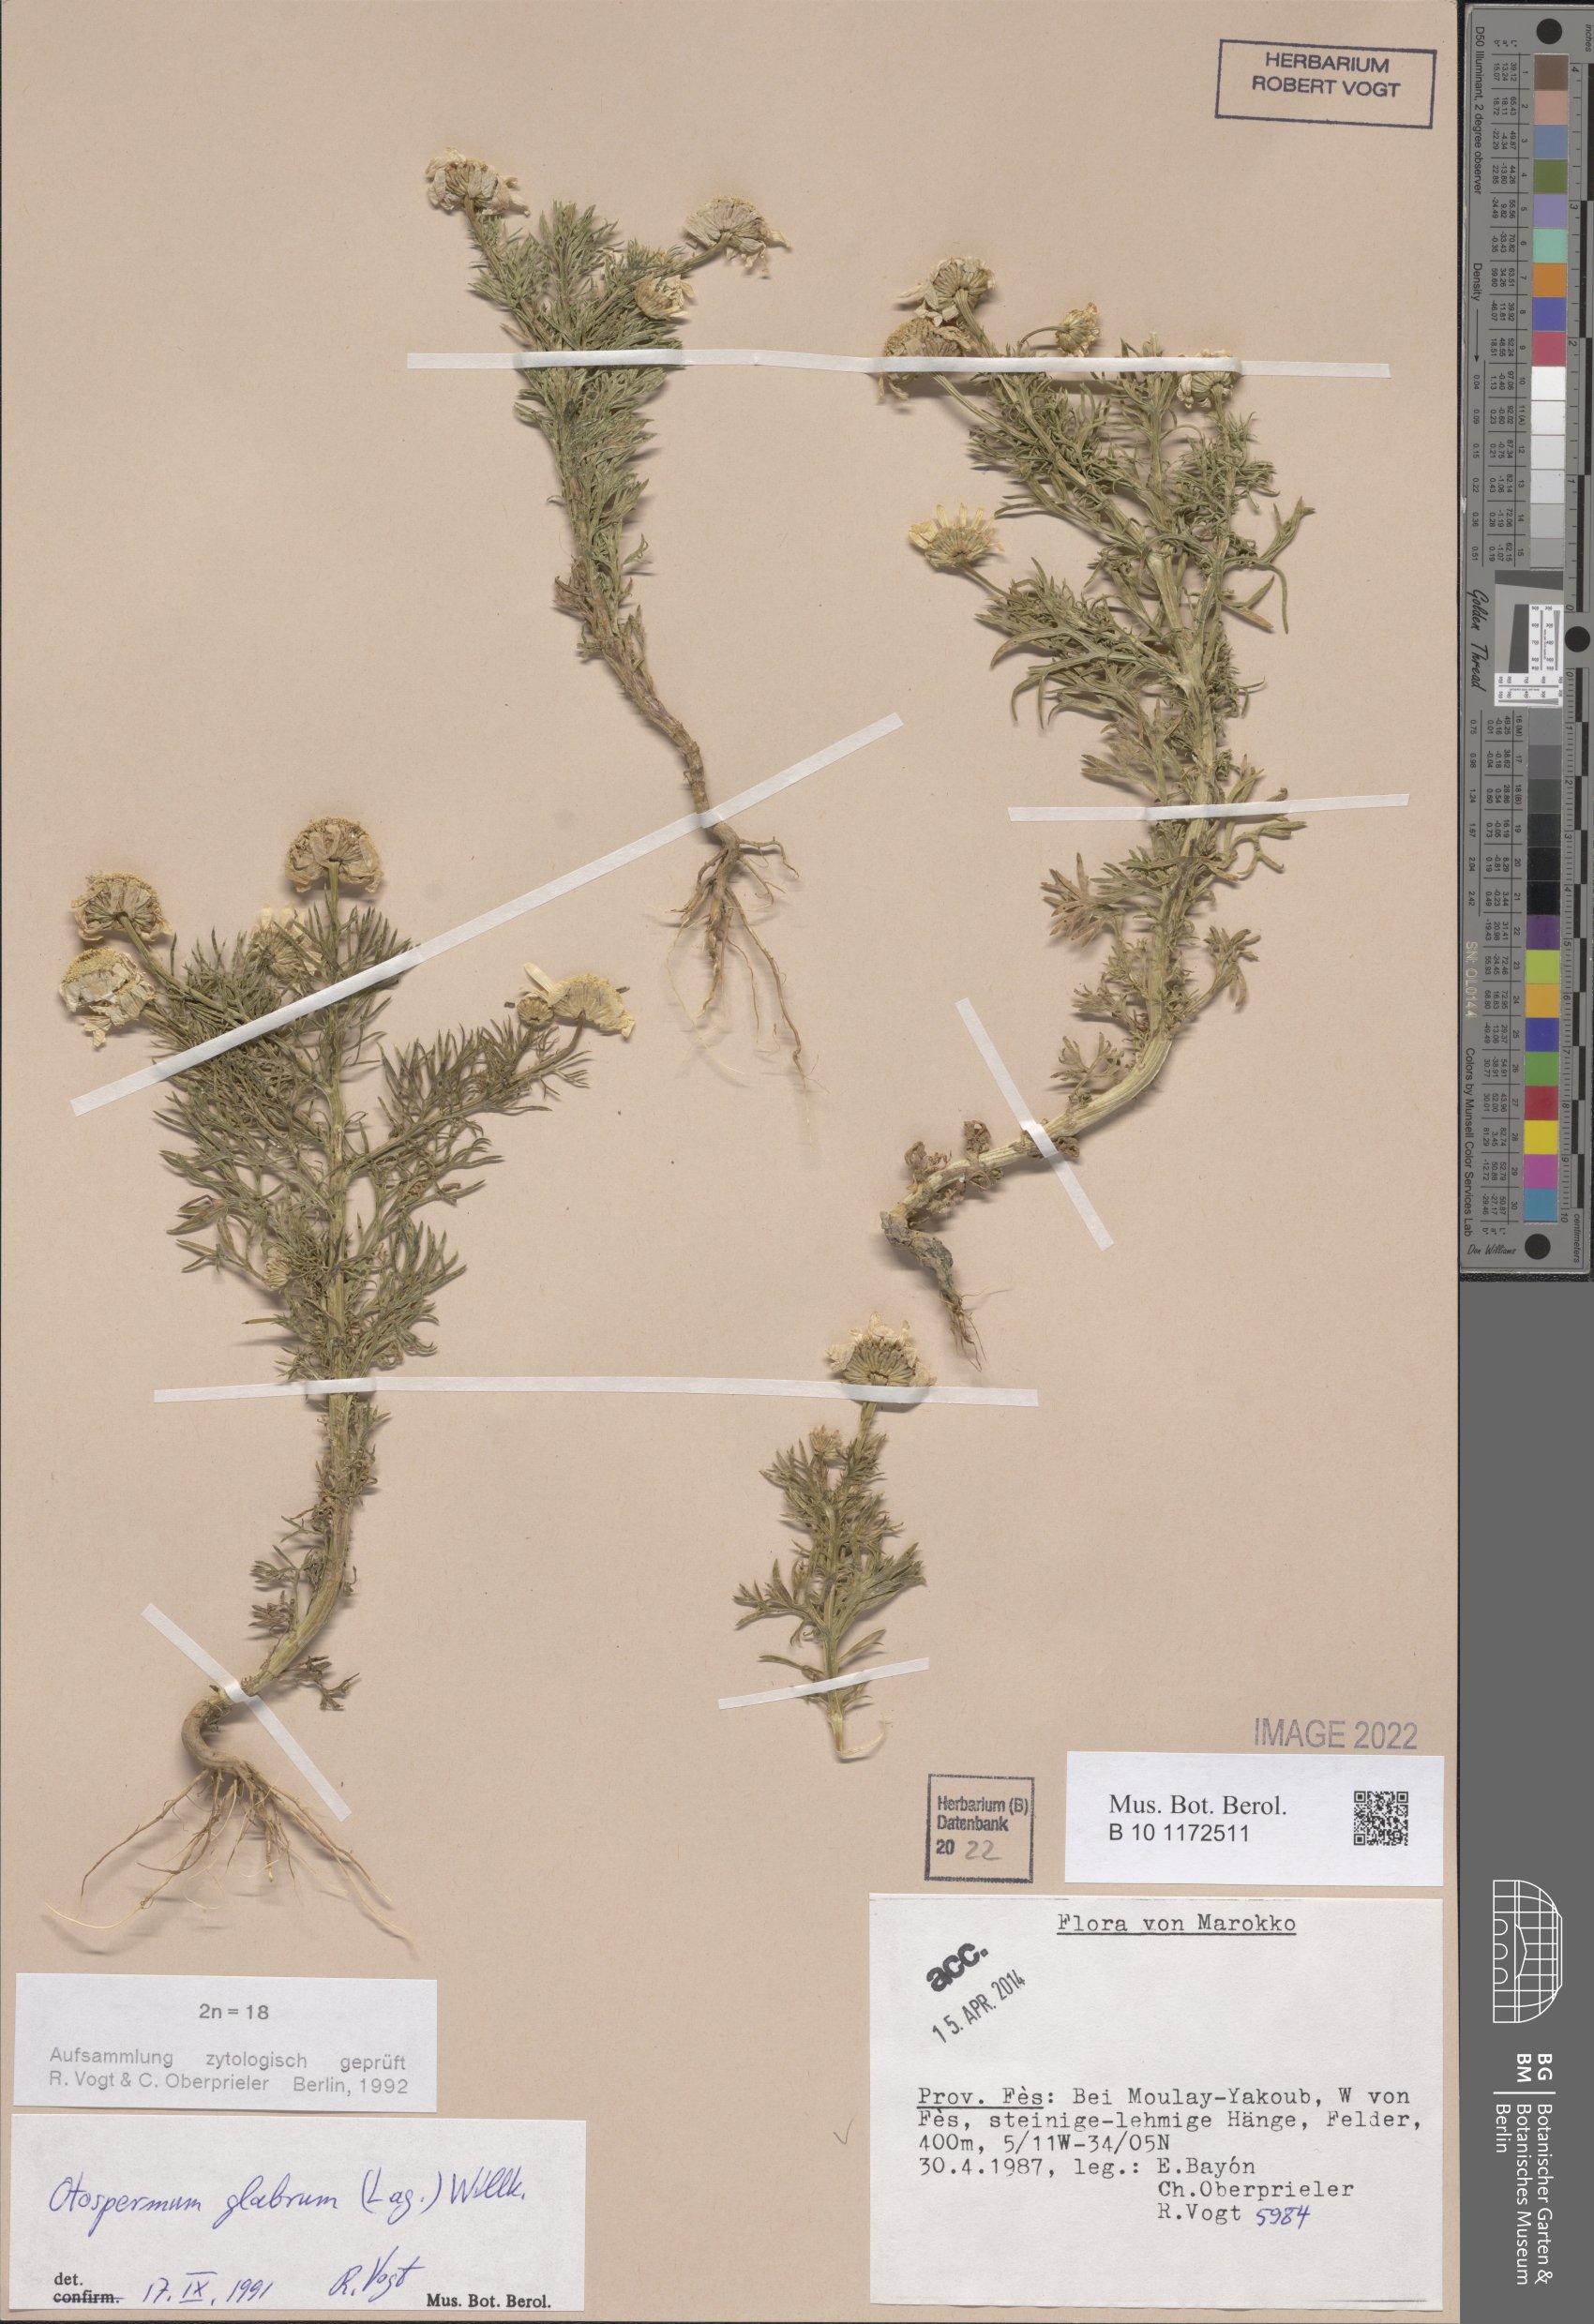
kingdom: Plantae
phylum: Tracheophyta
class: Magnoliopsida
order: Asterales
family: Asteraceae
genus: Otospermum
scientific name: Otospermum glabrum
